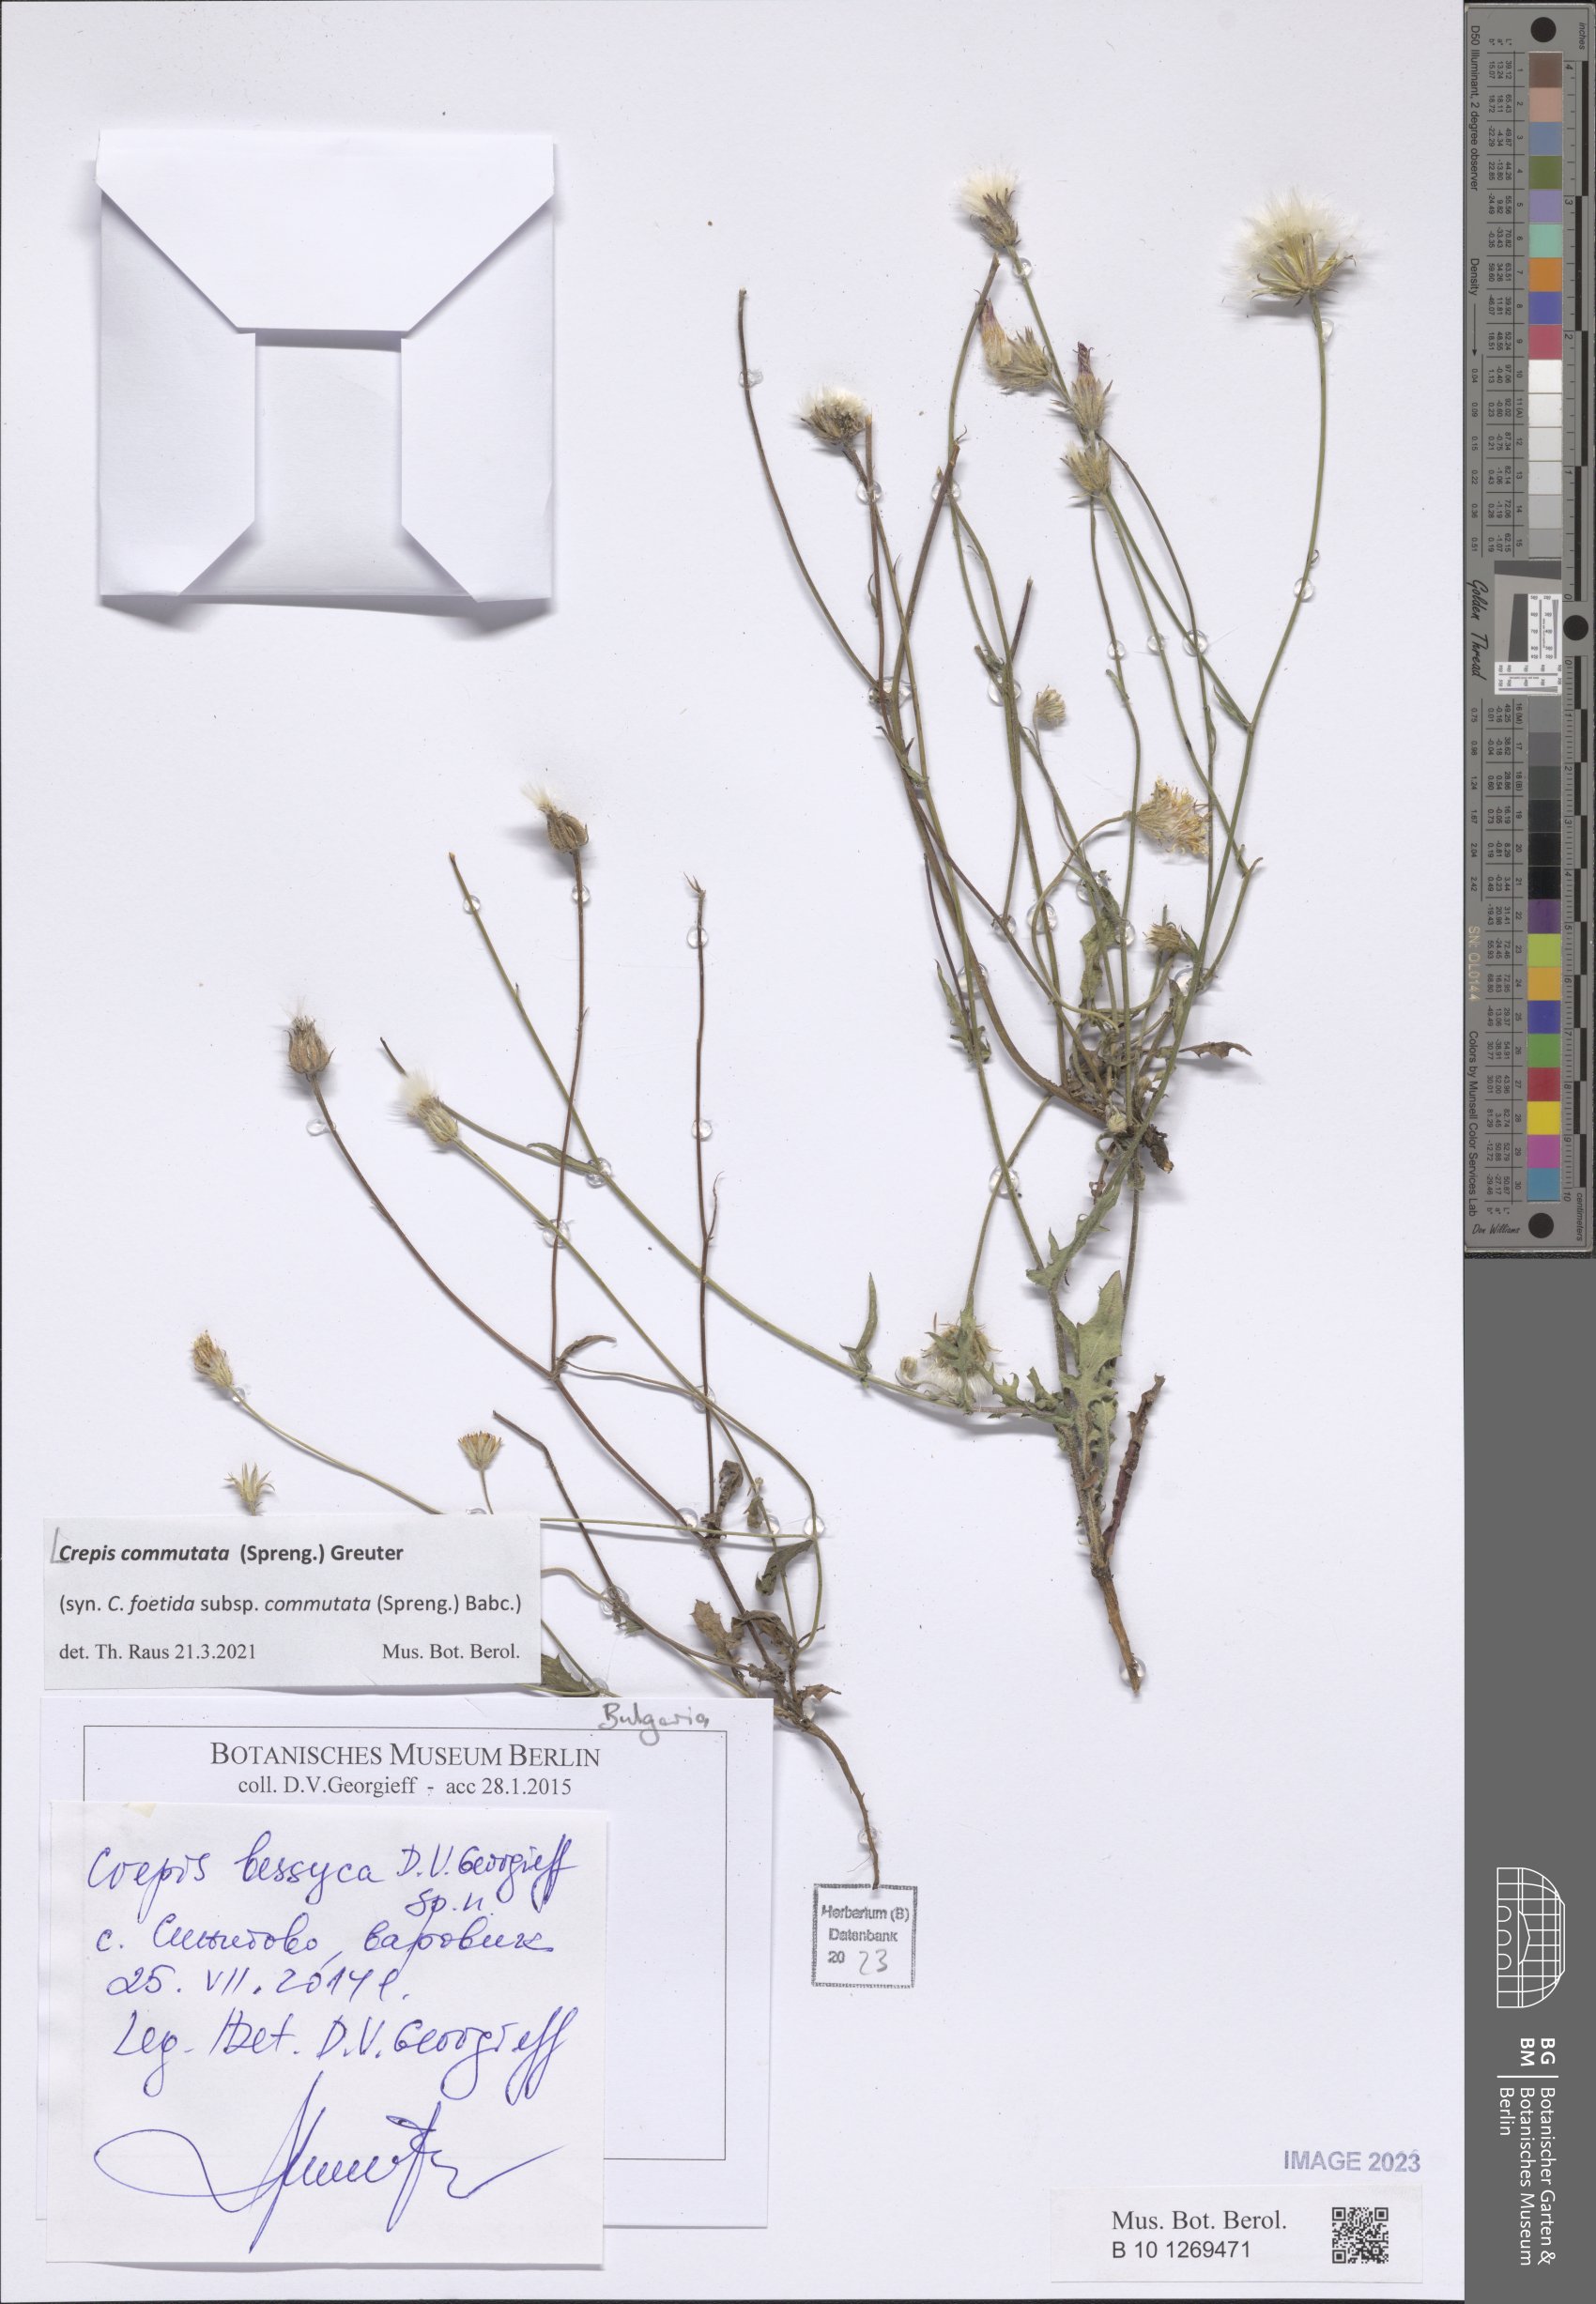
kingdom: Plantae
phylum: Tracheophyta
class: Magnoliopsida
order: Asterales
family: Asteraceae
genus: Crepis
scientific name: Crepis commutata
